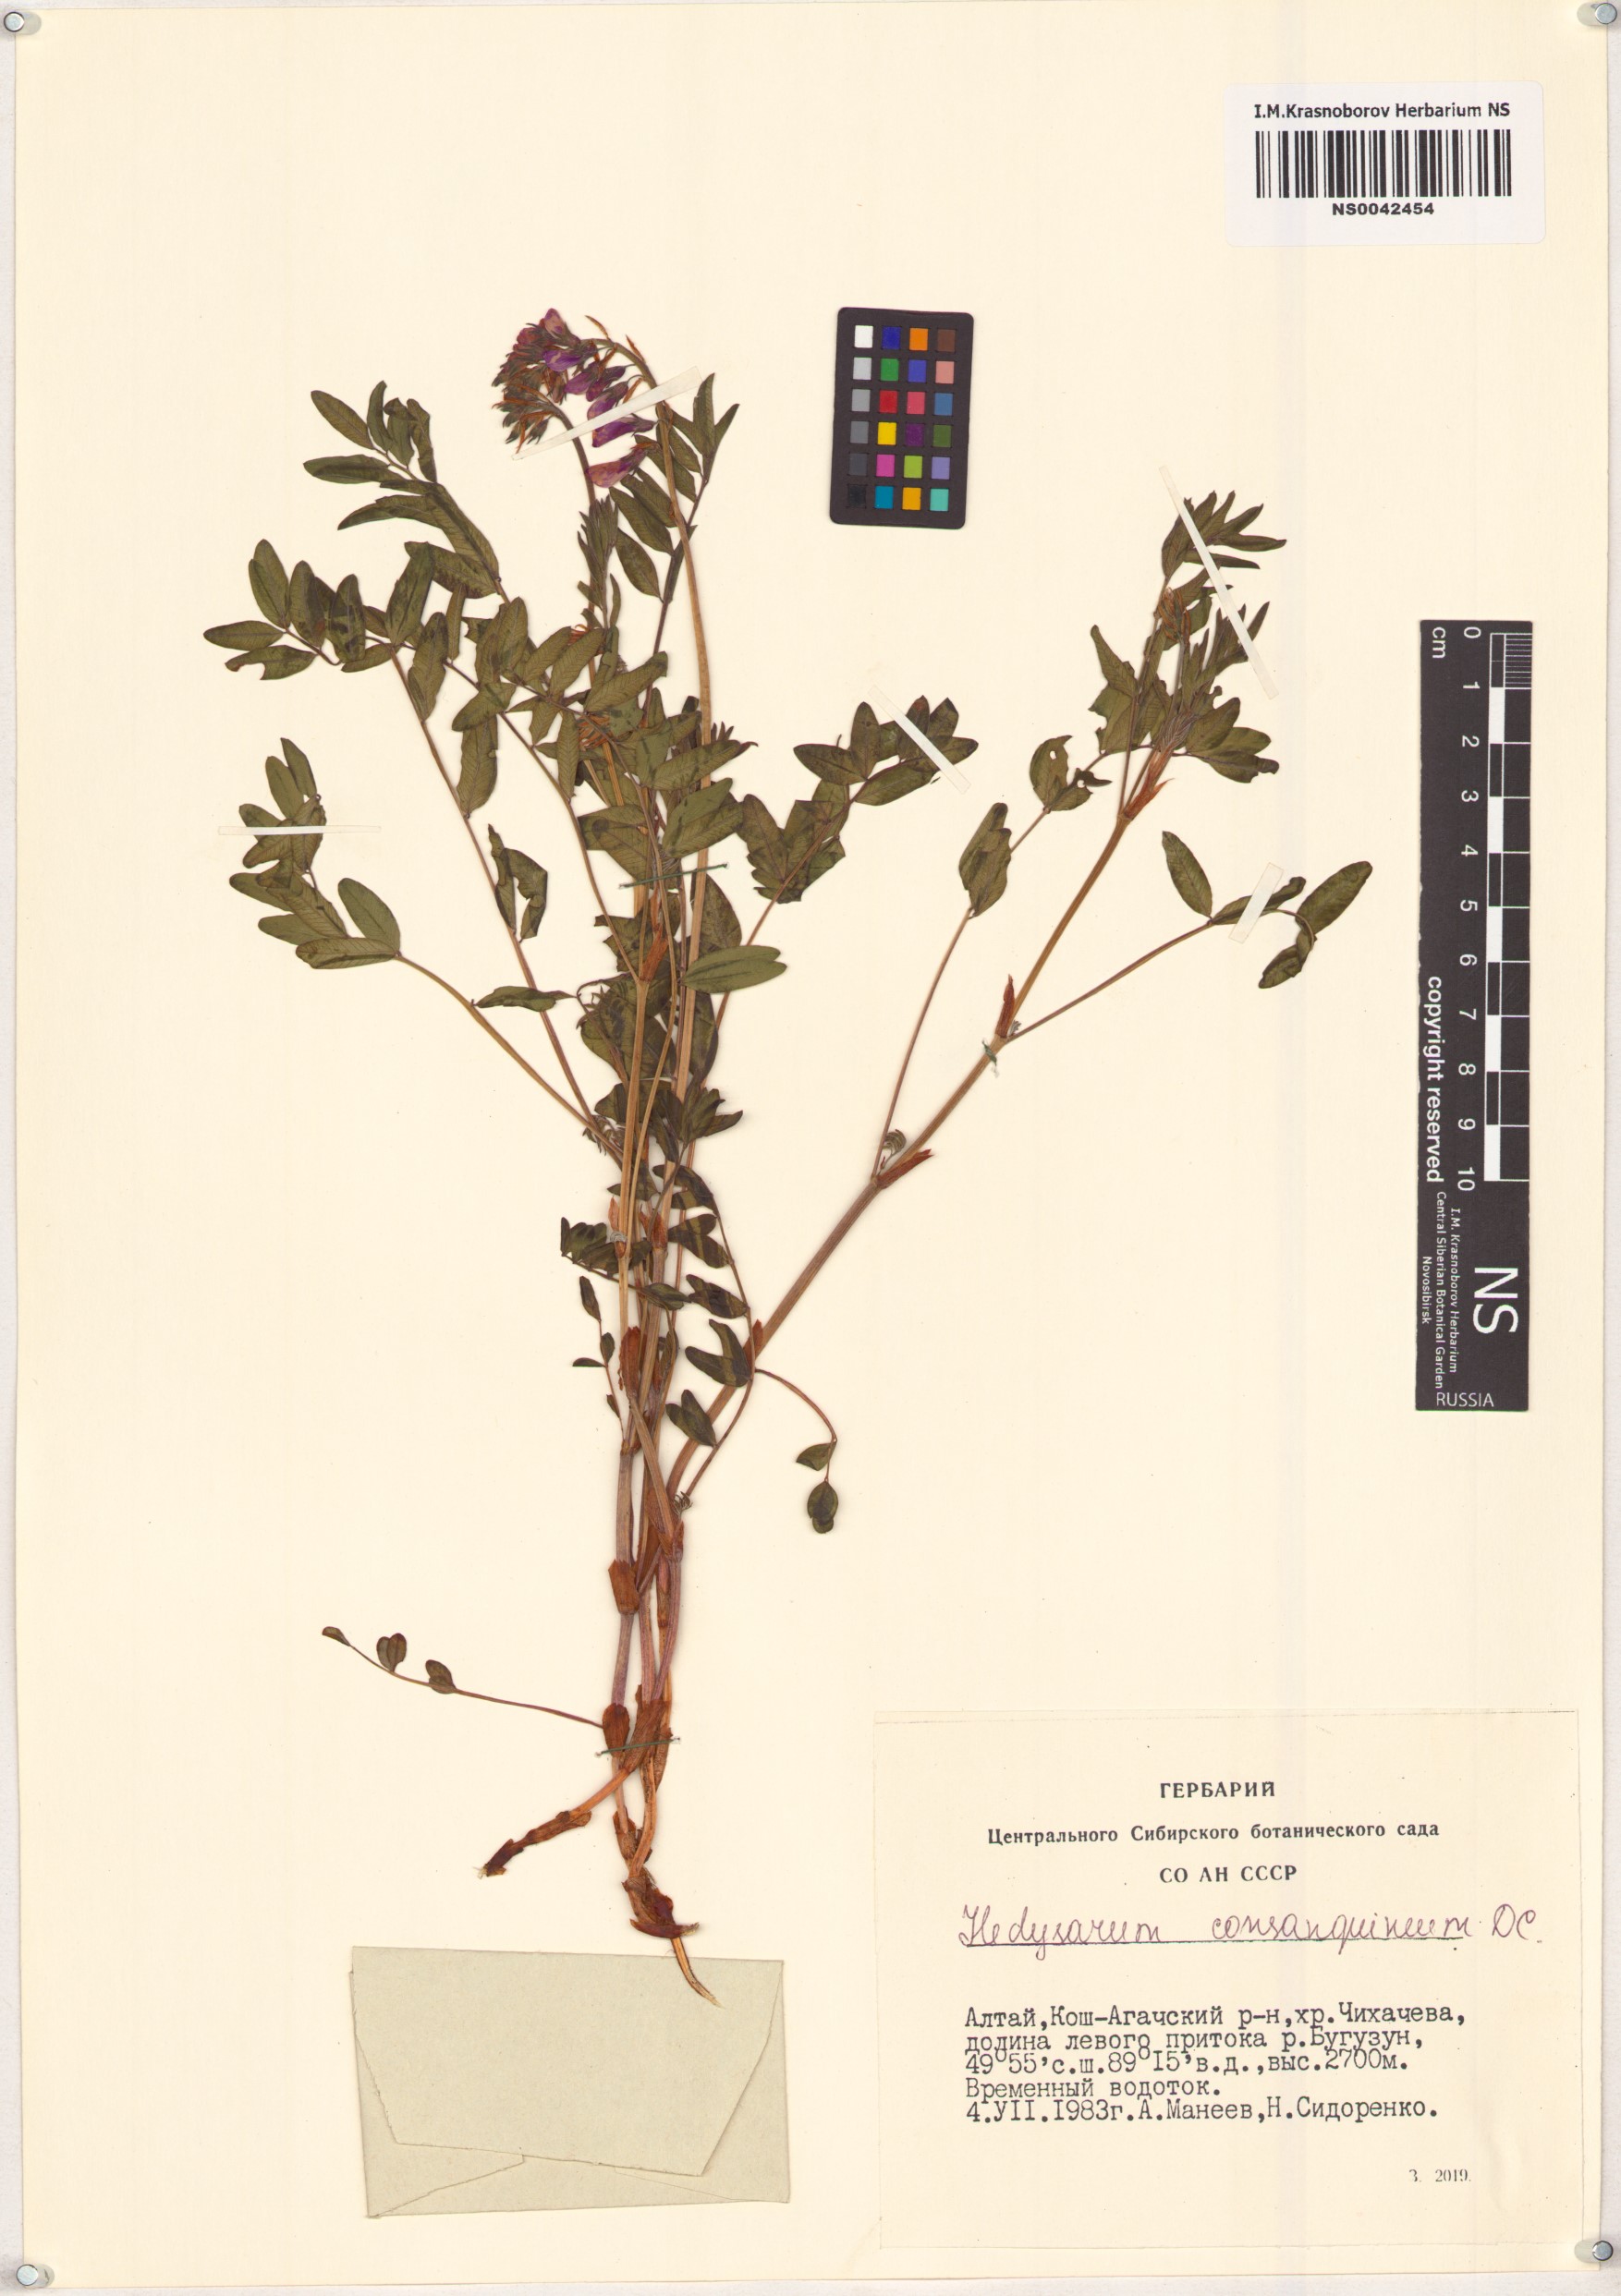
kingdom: Plantae
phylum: Tracheophyta
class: Magnoliopsida
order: Fabales
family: Fabaceae
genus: Hedysarum
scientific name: Hedysarum consanguineum
